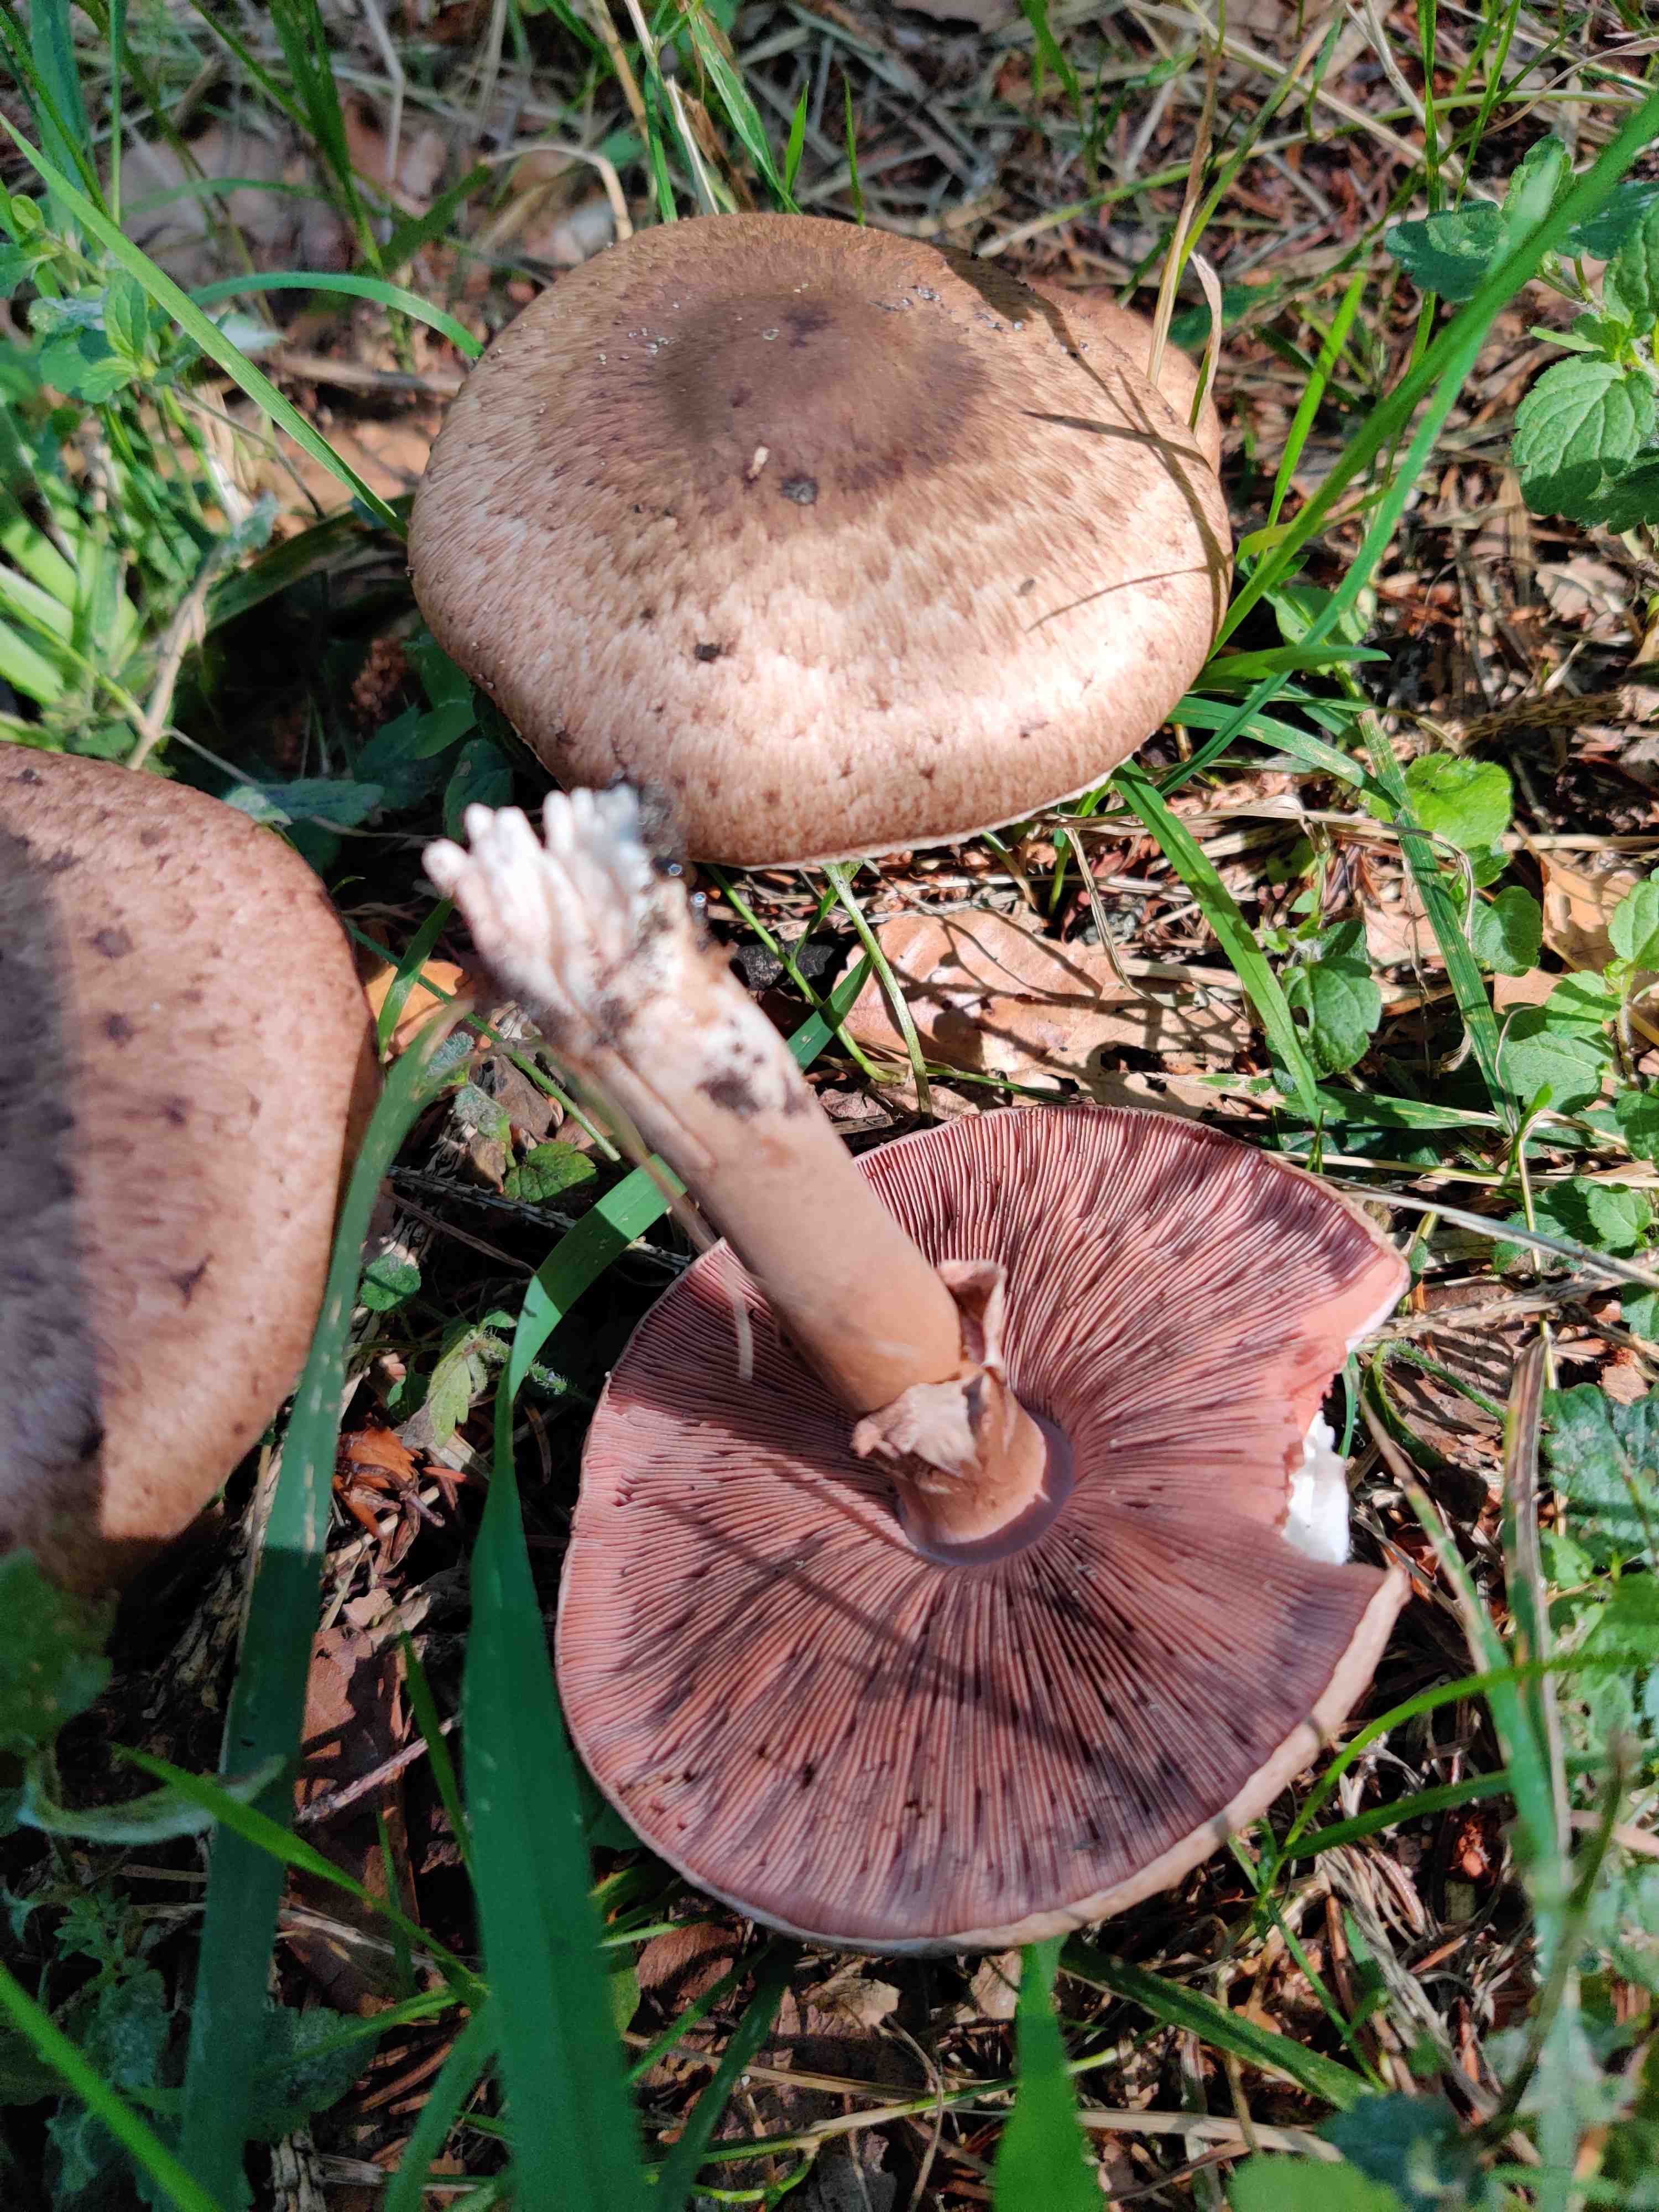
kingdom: Fungi
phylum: Basidiomycota
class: Agaricomycetes
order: Agaricales
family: Agaricaceae
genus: Agaricus
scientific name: Agaricus langei
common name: stor blod-champignon
